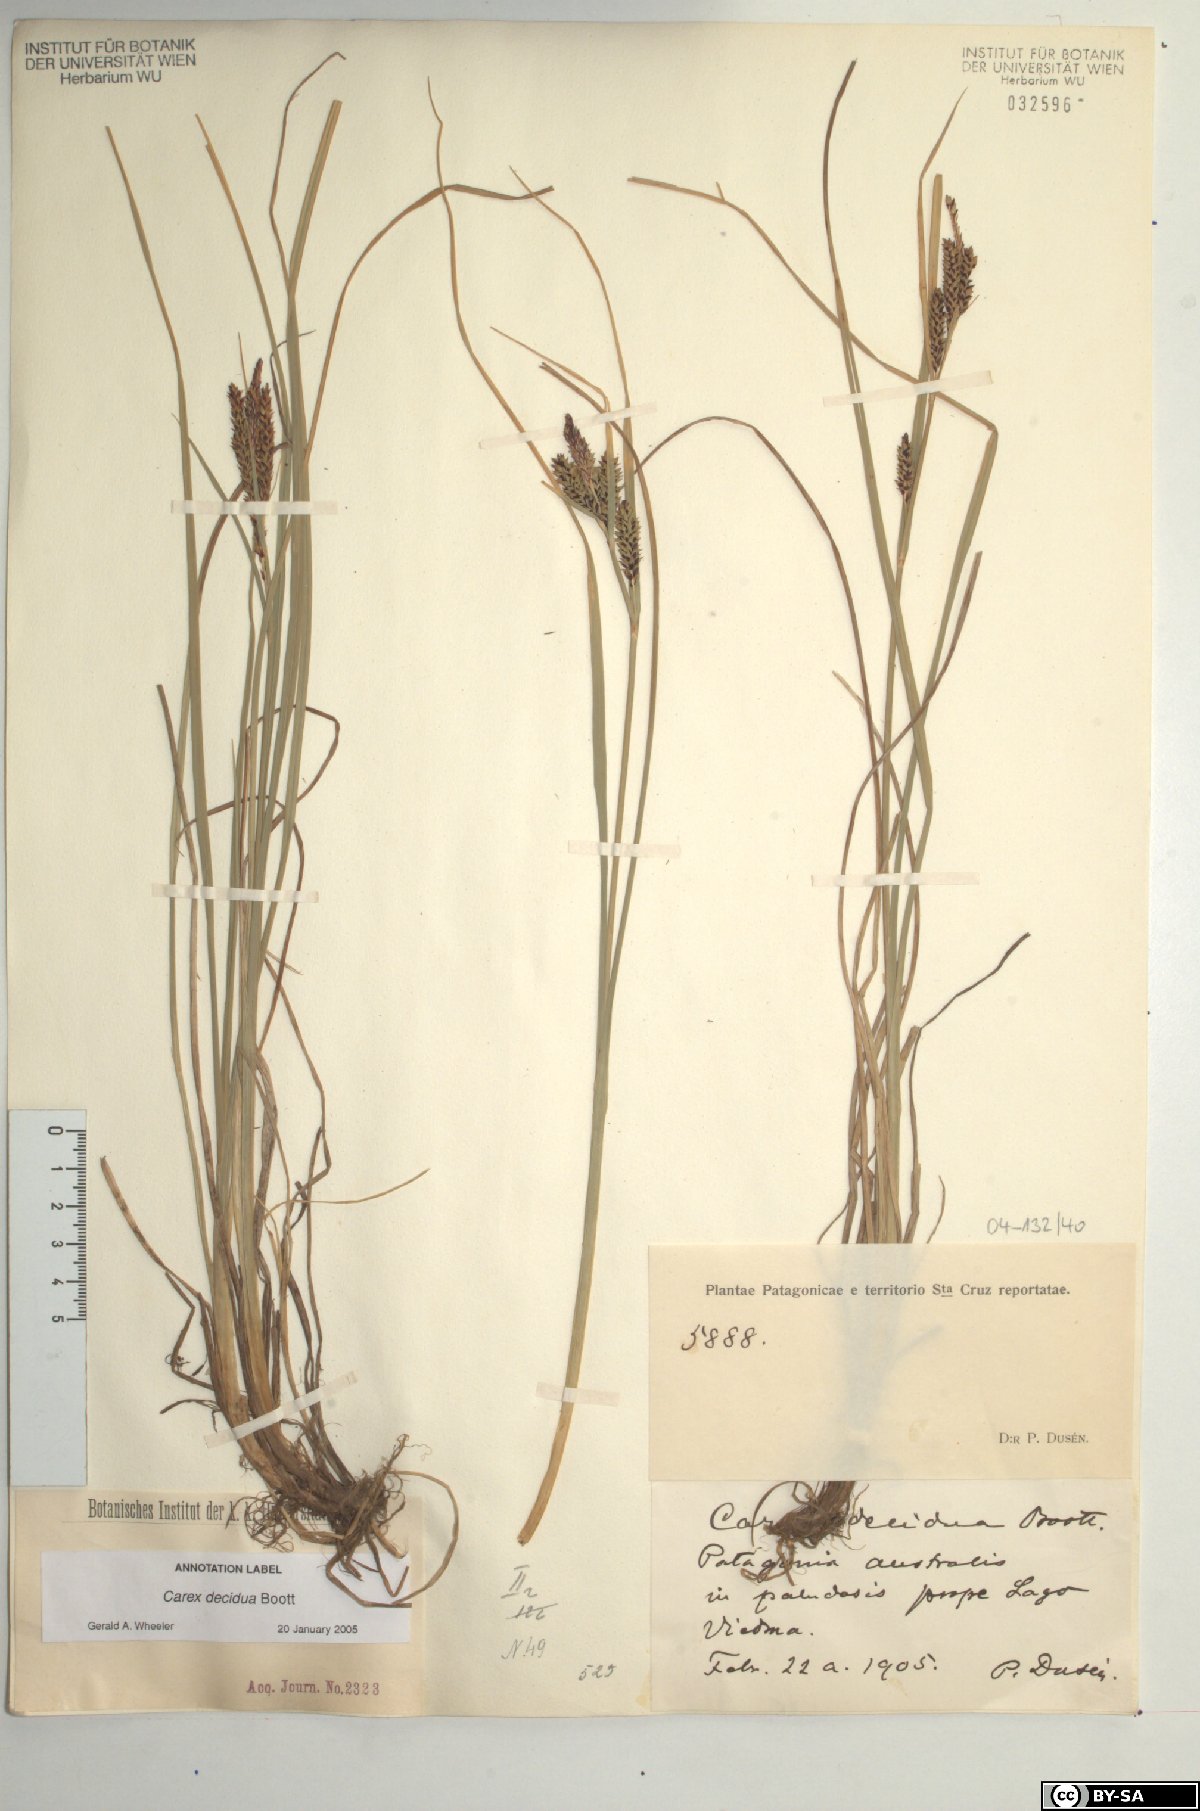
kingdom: Plantae
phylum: Tracheophyta
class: Liliopsida
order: Poales
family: Cyperaceae
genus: Carex
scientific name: Carex decidua
